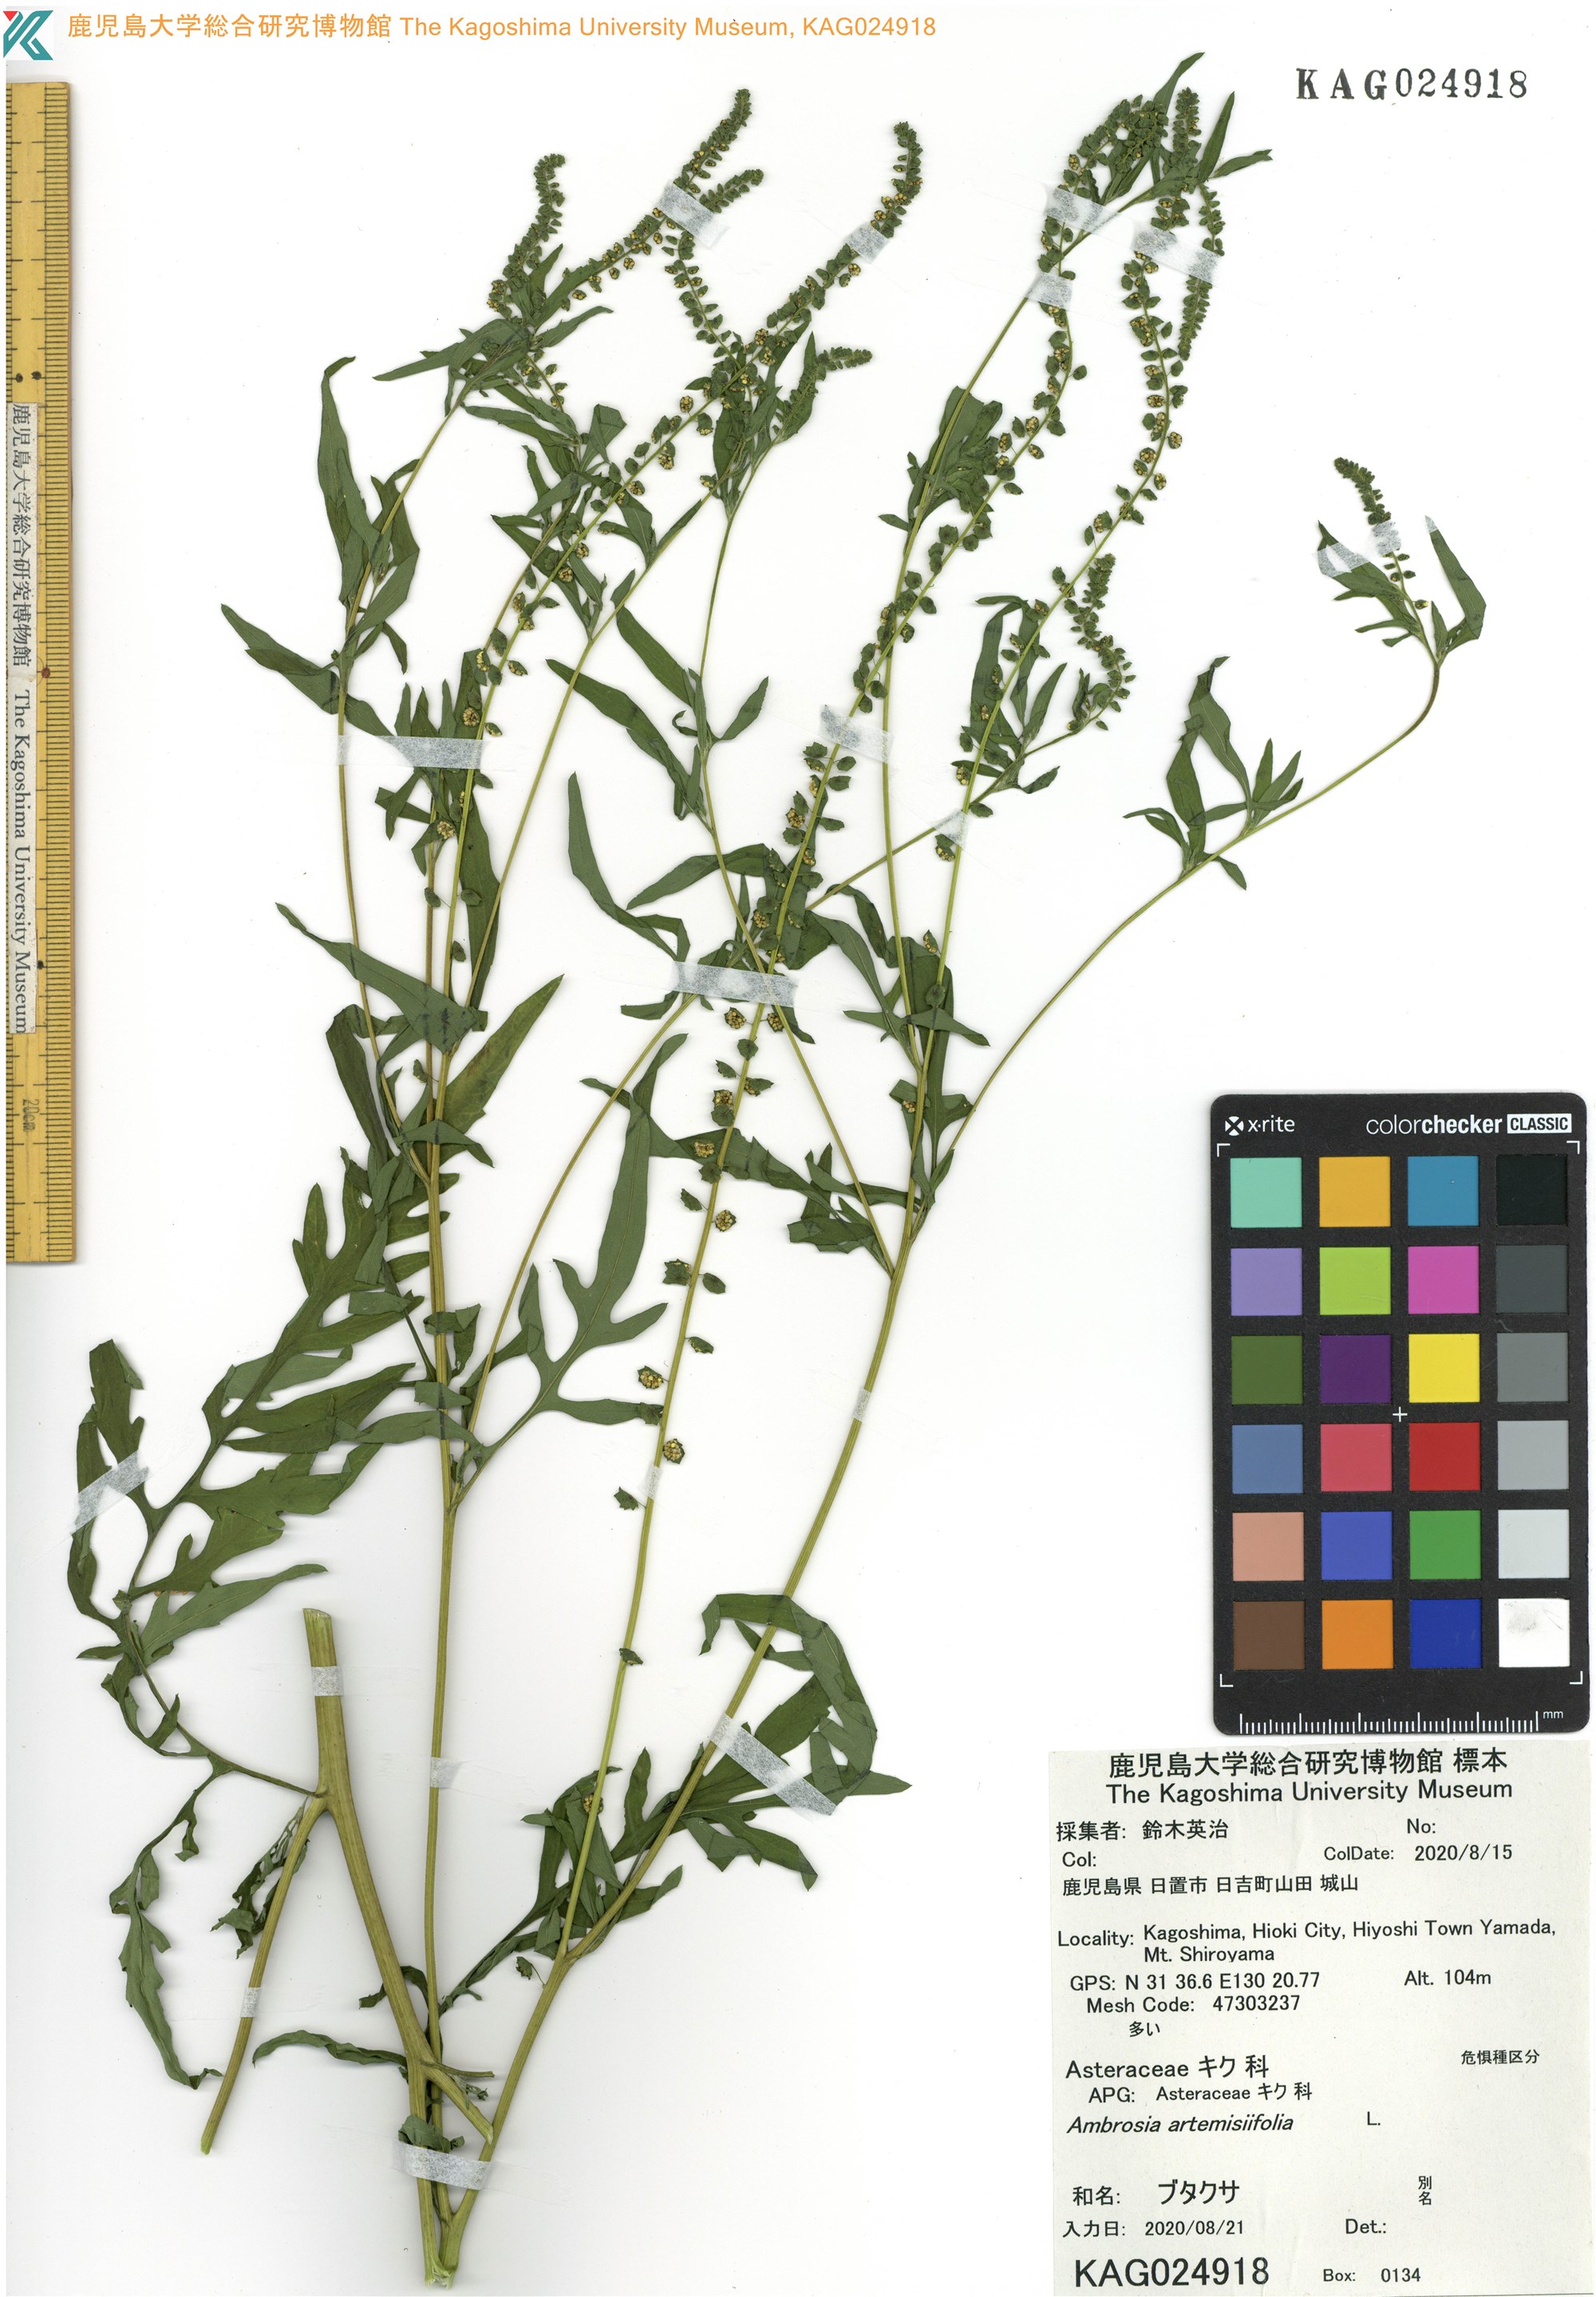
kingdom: Plantae
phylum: Tracheophyta
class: Magnoliopsida
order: Asterales
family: Asteraceae
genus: Ambrosia
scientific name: Ambrosia artemisiifolia
